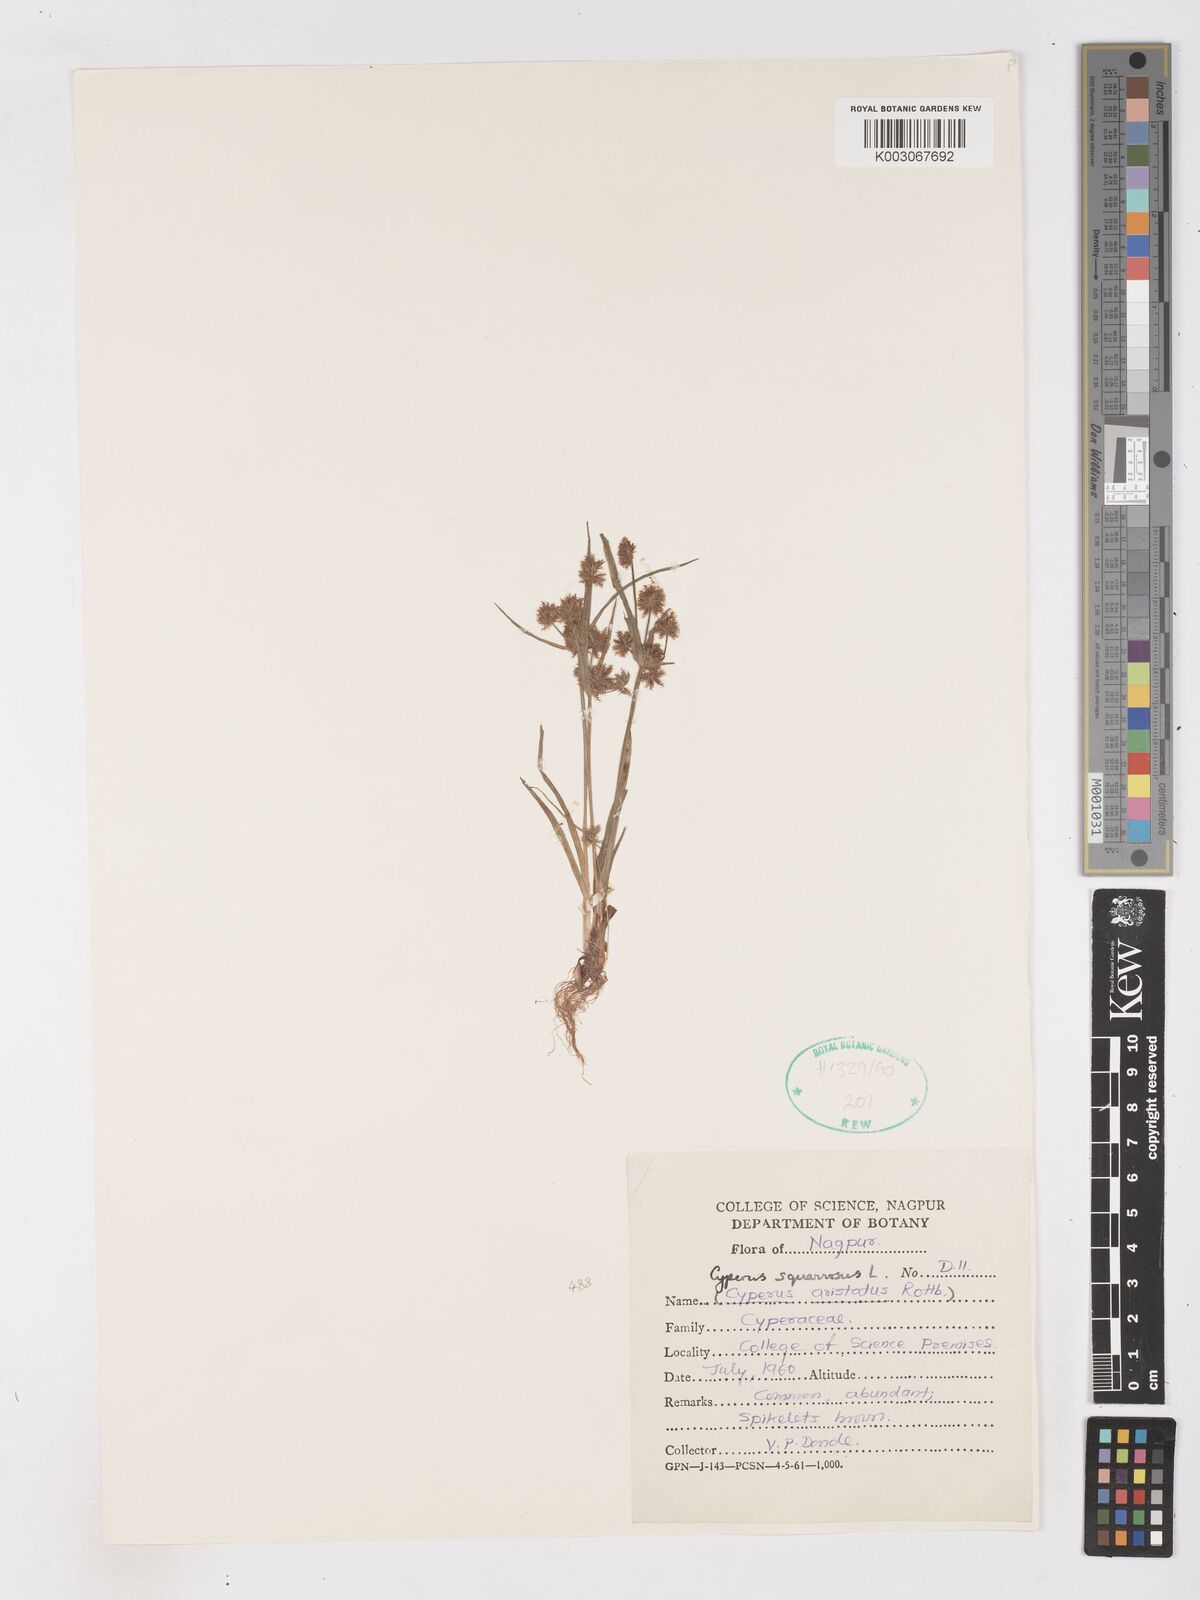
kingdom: Plantae
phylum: Tracheophyta
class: Liliopsida
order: Poales
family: Cyperaceae
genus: Cyperus
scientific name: Cyperus squarrosus
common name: Awned cyperus
